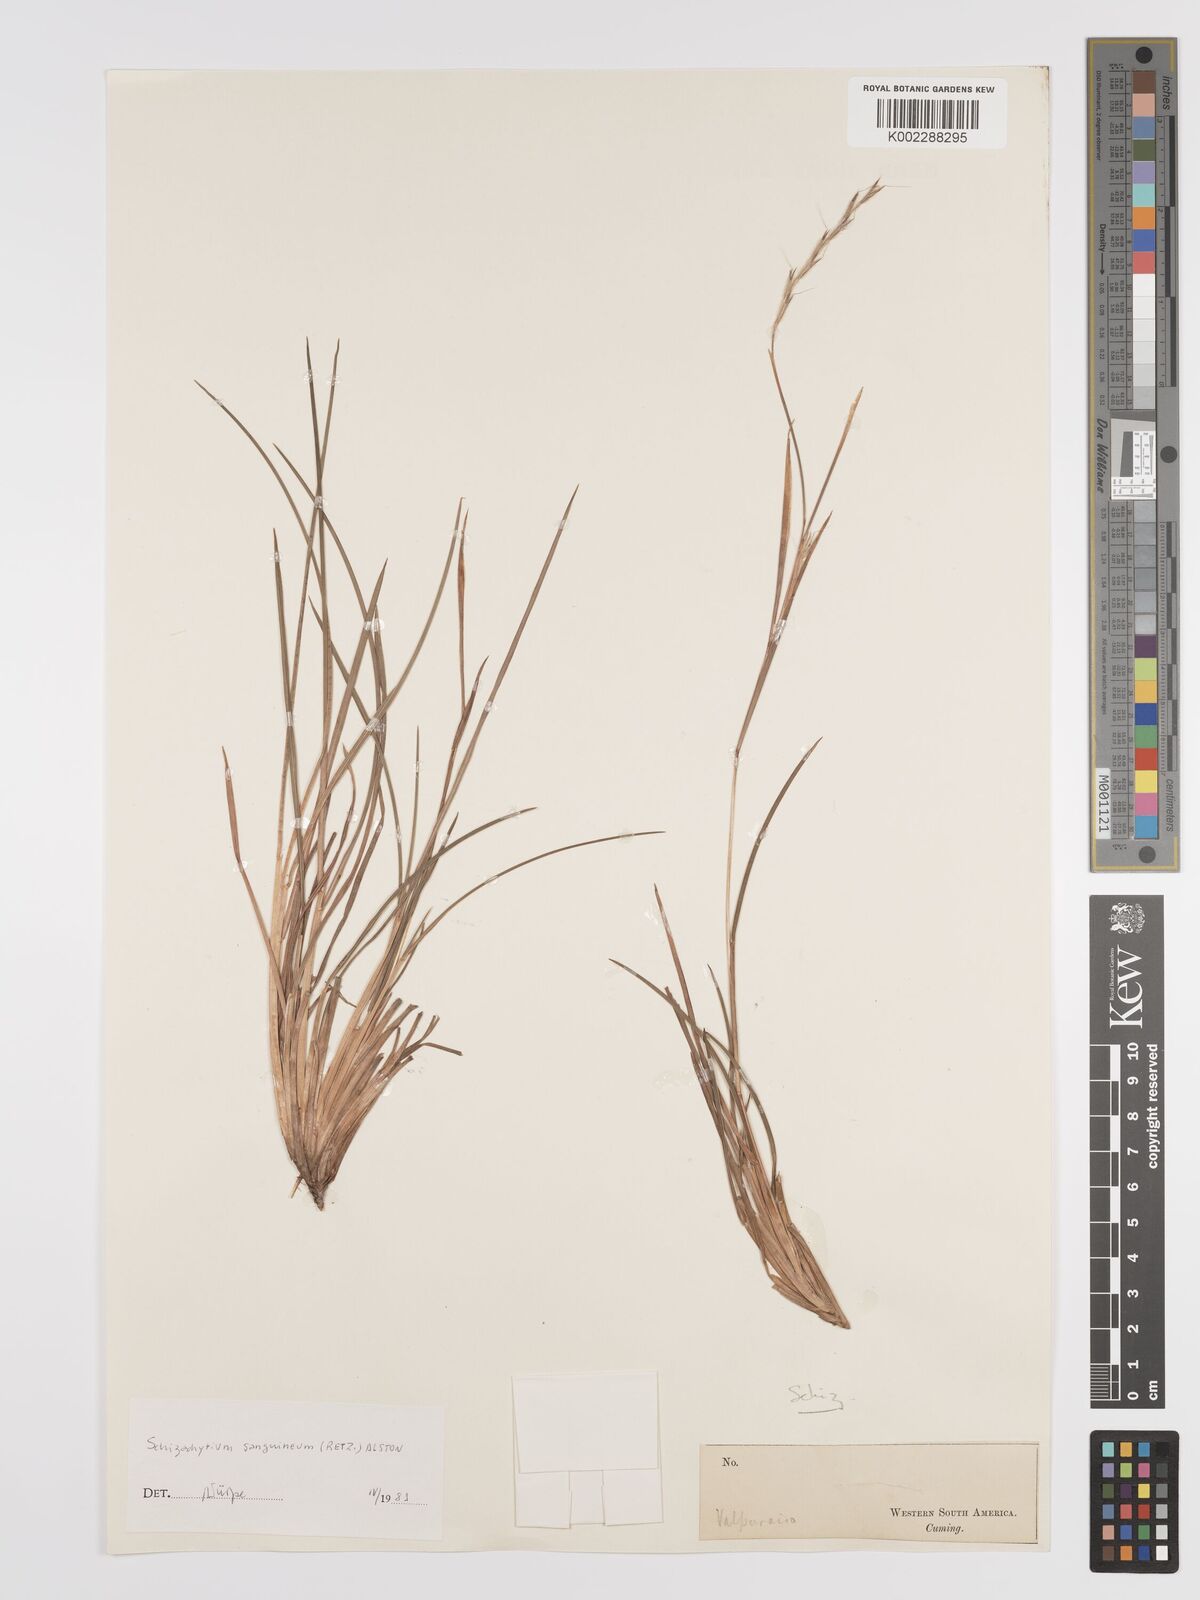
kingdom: Plantae
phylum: Tracheophyta
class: Liliopsida
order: Poales
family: Poaceae
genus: Schizachyrium
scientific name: Schizachyrium sanguineum
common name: Crimson bluestem
